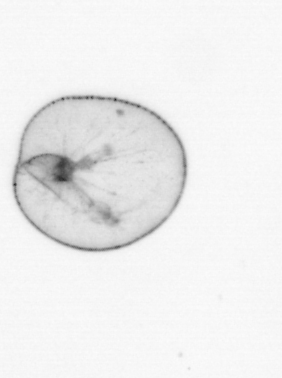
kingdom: Chromista
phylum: Myzozoa
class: Dinophyceae
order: Noctilucales
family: Noctilucaceae
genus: Noctiluca
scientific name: Noctiluca scintillans
